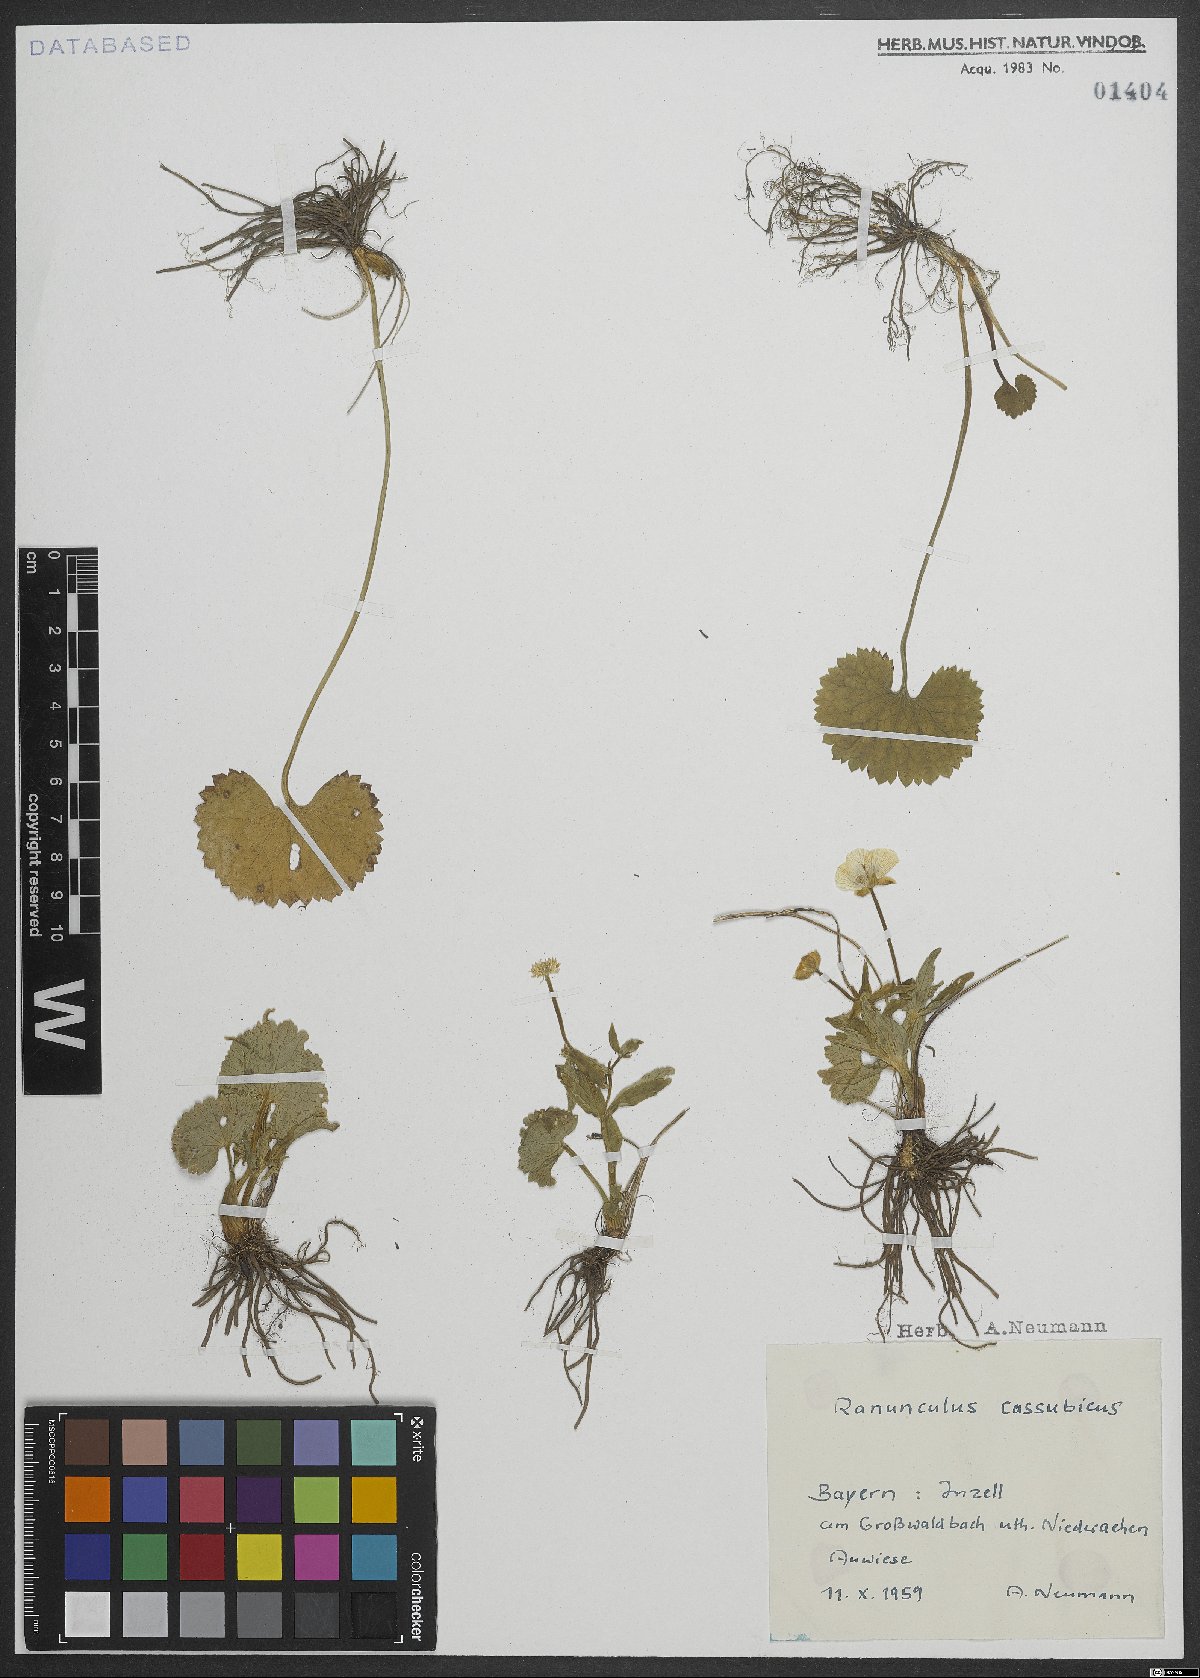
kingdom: Plantae
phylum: Tracheophyta
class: Magnoliopsida
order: Ranunculales
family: Ranunculaceae
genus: Ranunculus
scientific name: Ranunculus cassubicus
